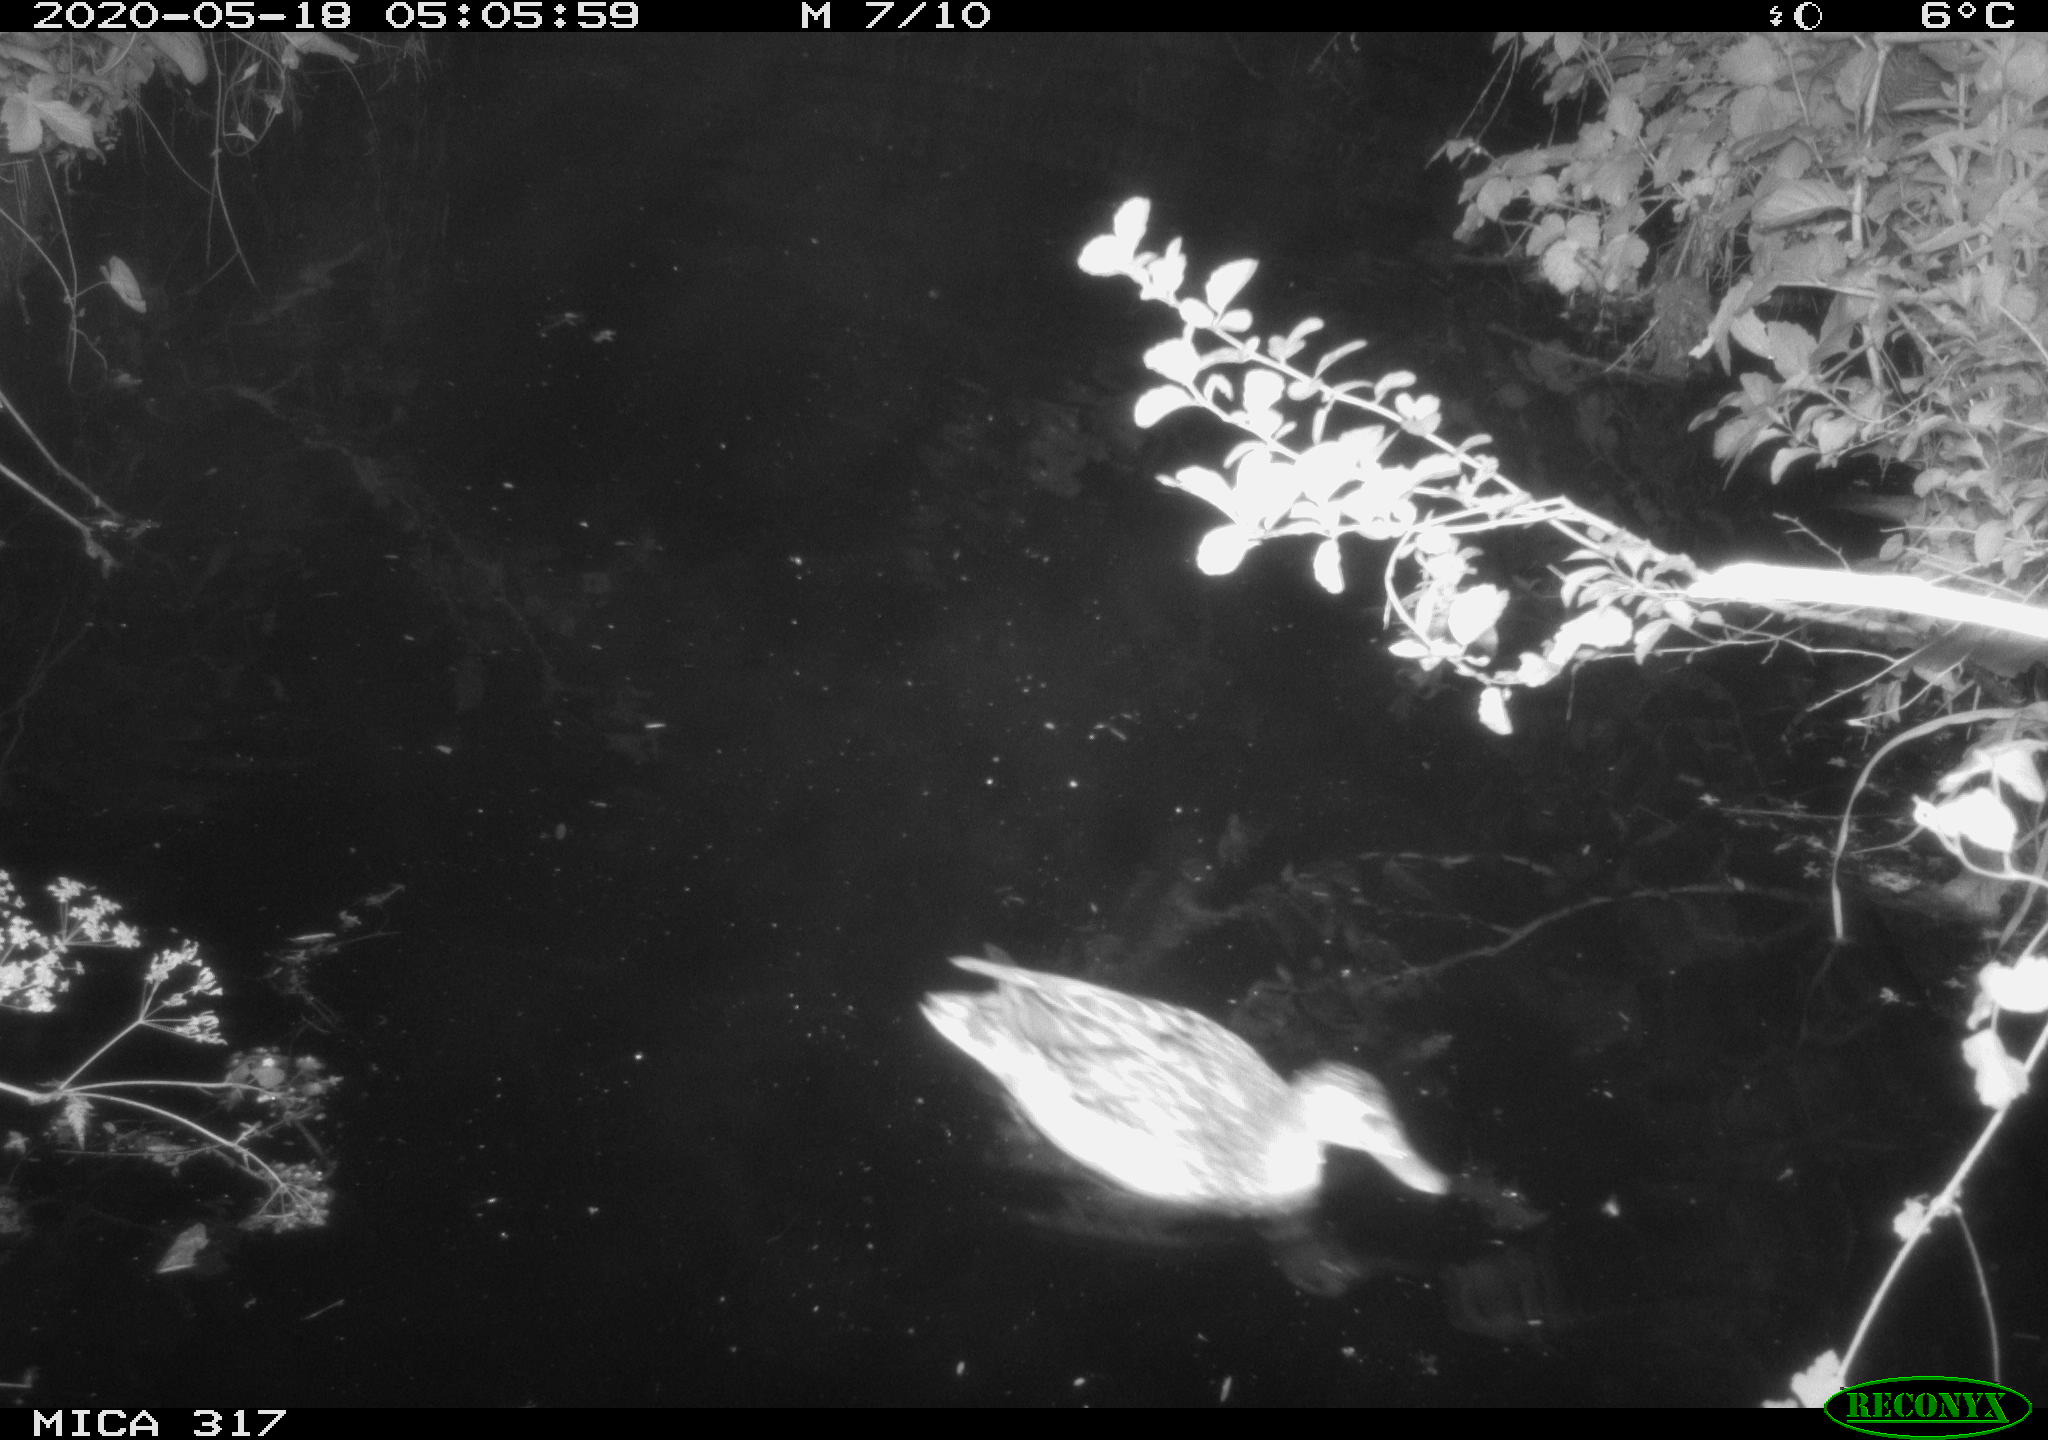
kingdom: Animalia
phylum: Chordata
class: Aves
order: Anseriformes
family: Anatidae
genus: Anas
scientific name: Anas platyrhynchos
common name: Mallard
